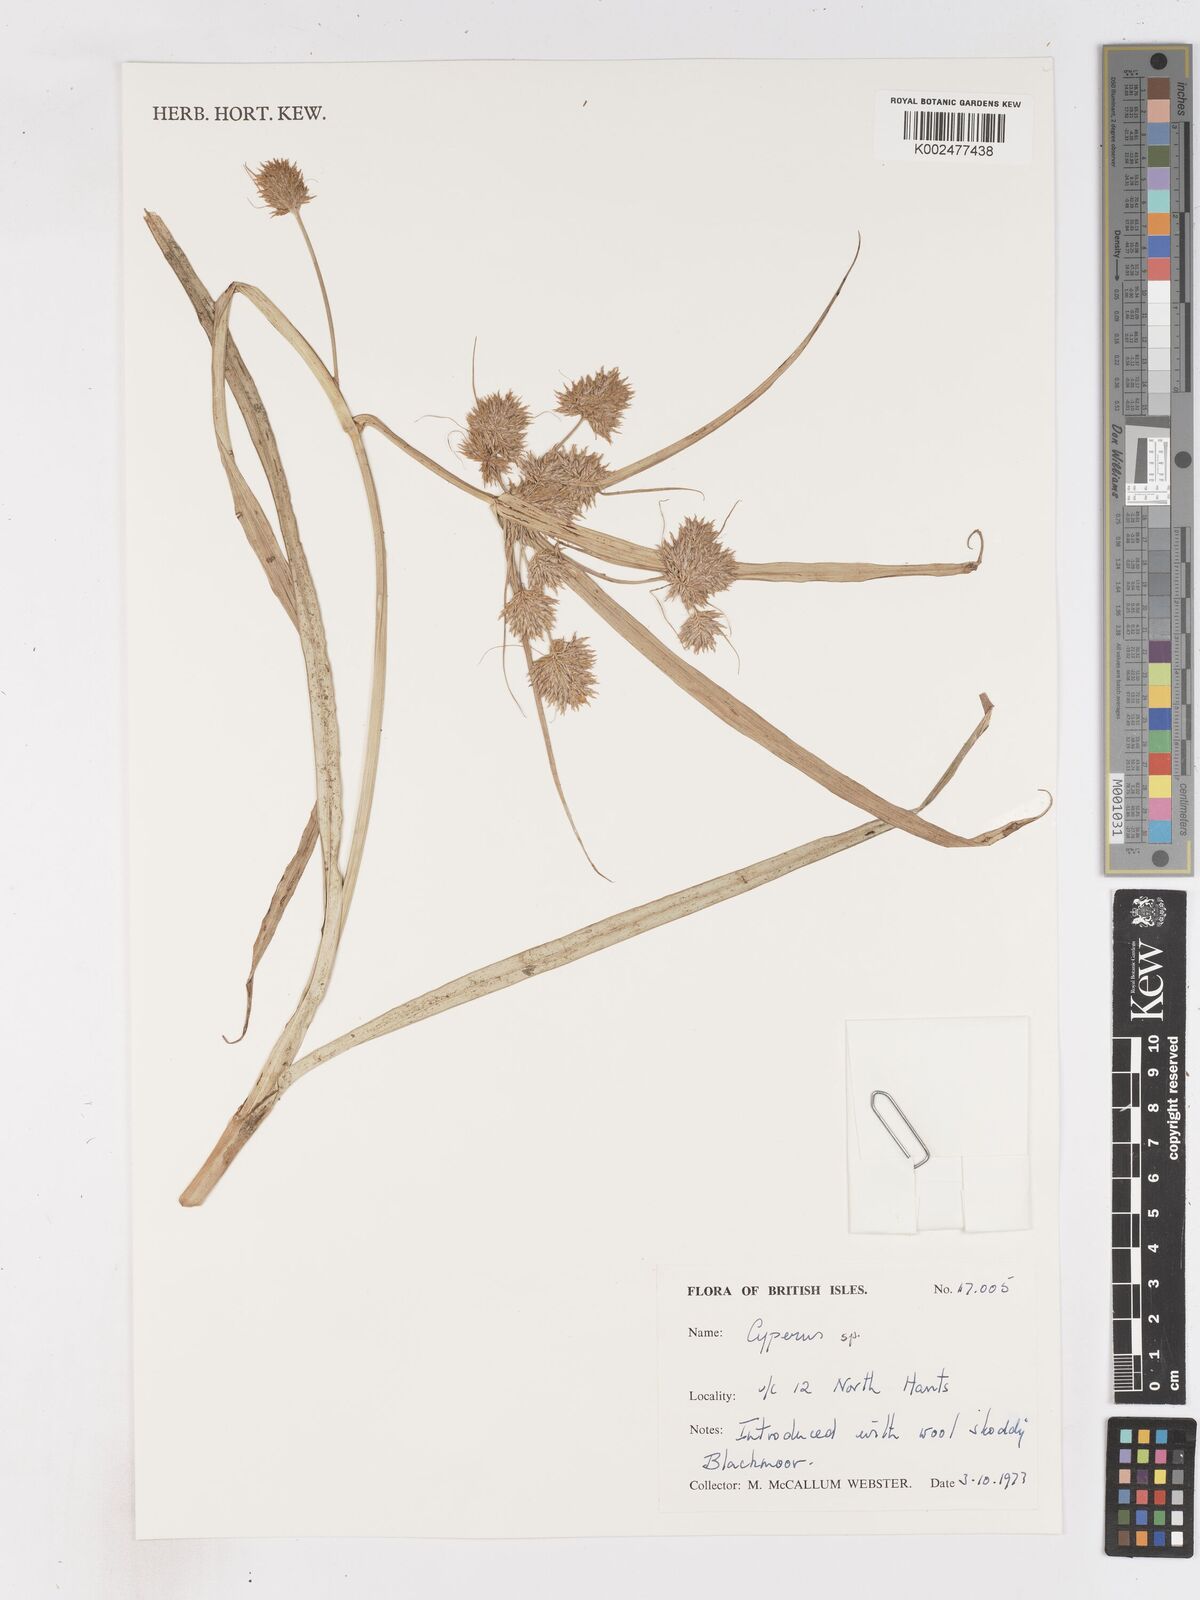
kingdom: Plantae
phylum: Tracheophyta
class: Liliopsida
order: Poales
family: Cyperaceae
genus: Cyperus
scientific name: Cyperus
